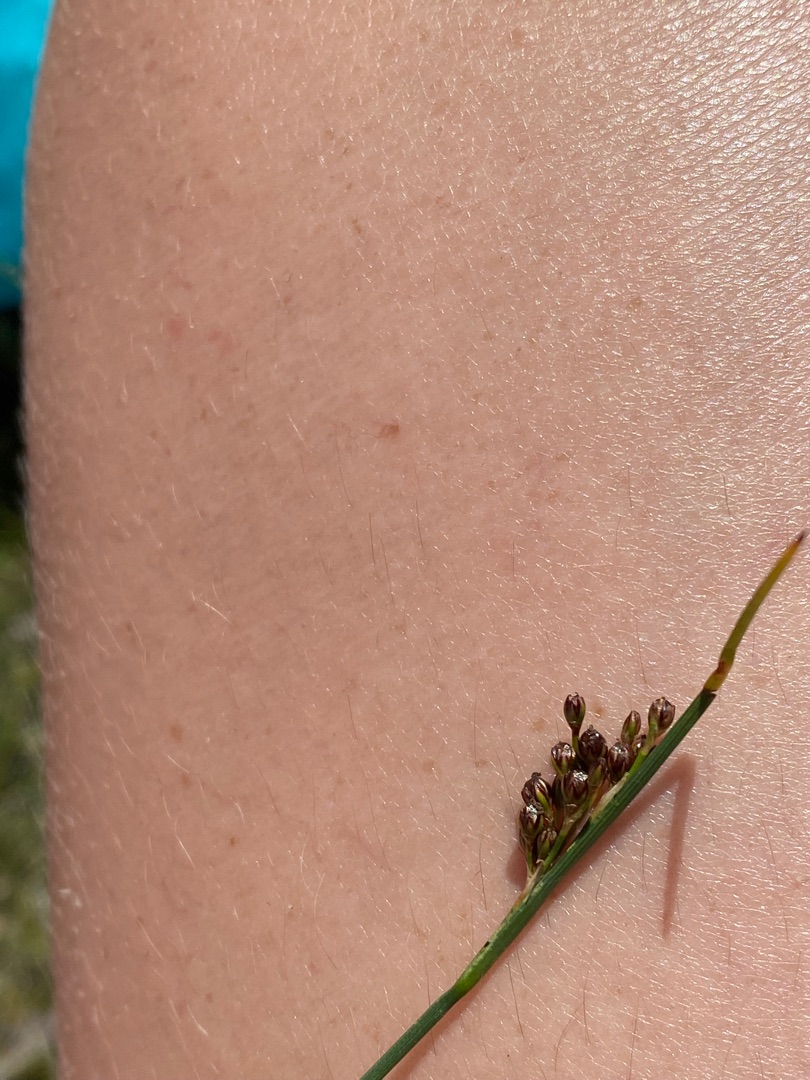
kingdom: Plantae
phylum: Tracheophyta
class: Liliopsida
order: Poales
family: Juncaceae
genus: Juncus
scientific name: Juncus gerardi
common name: Harril
